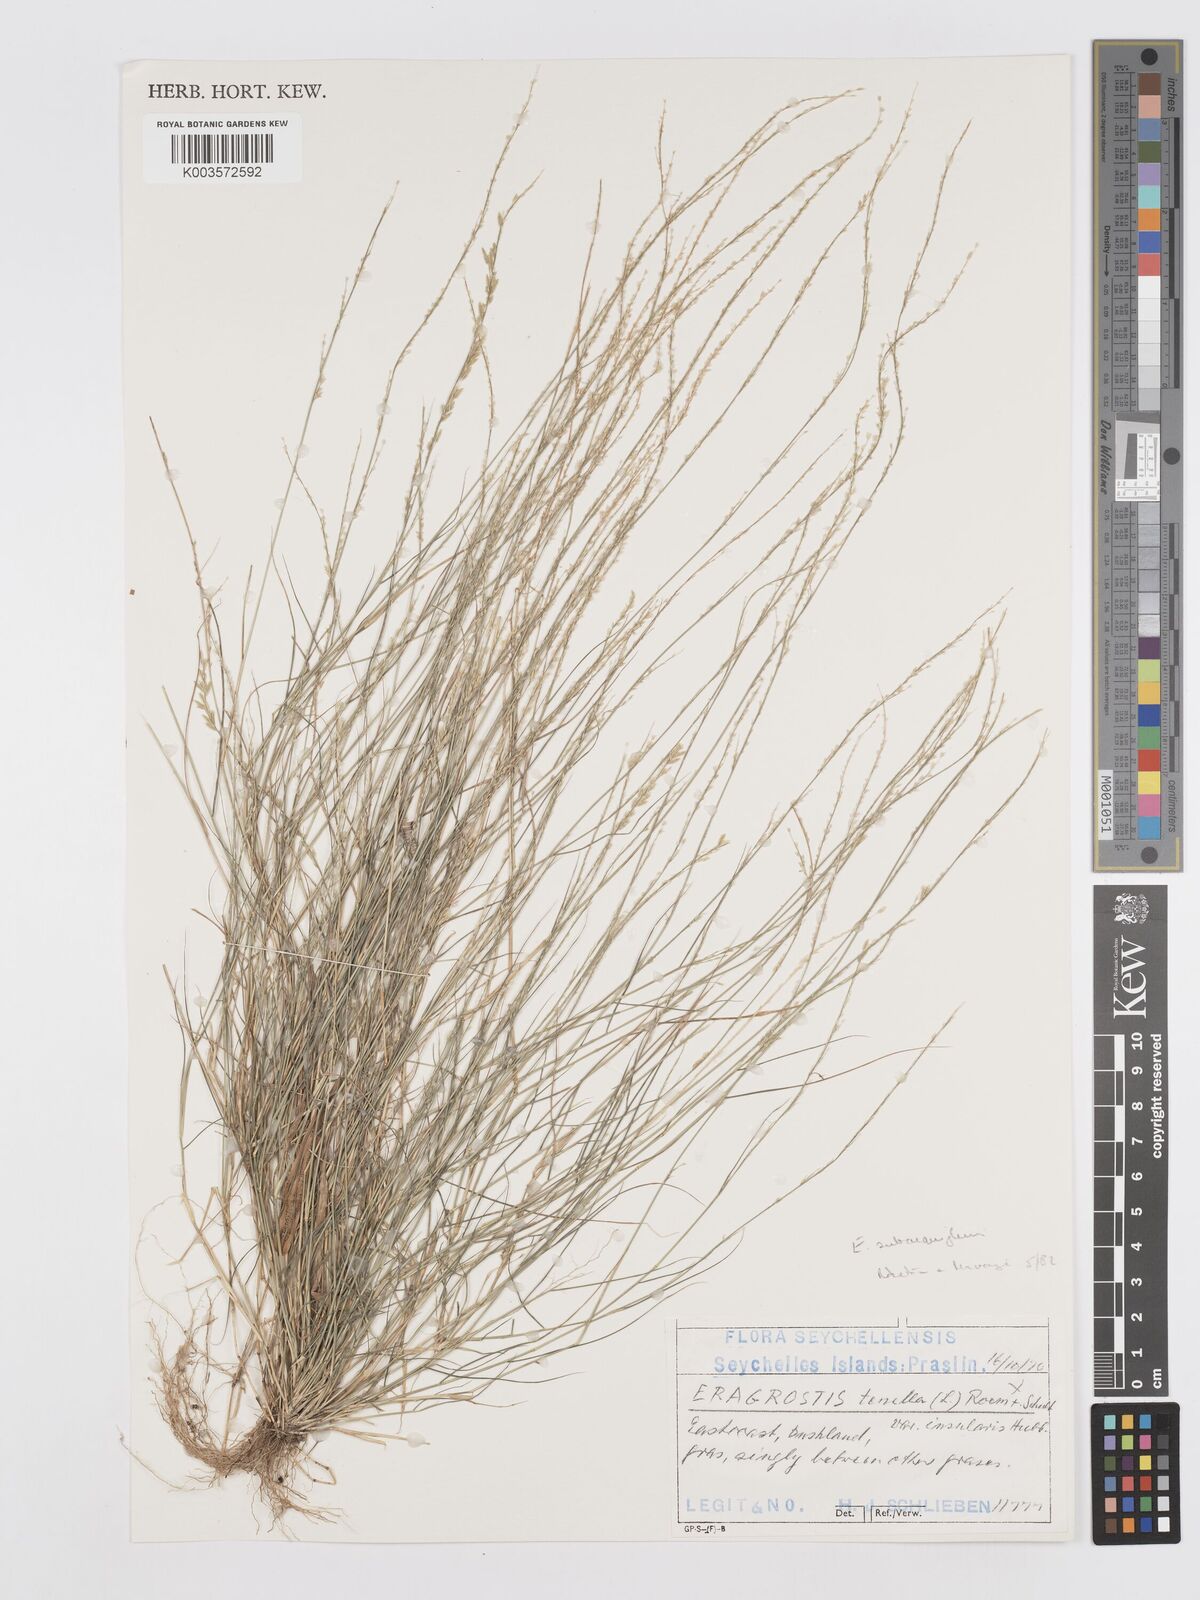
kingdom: Plantae
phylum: Tracheophyta
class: Liliopsida
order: Poales
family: Poaceae
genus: Eragrostis
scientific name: Eragrostis subaequiglumis
